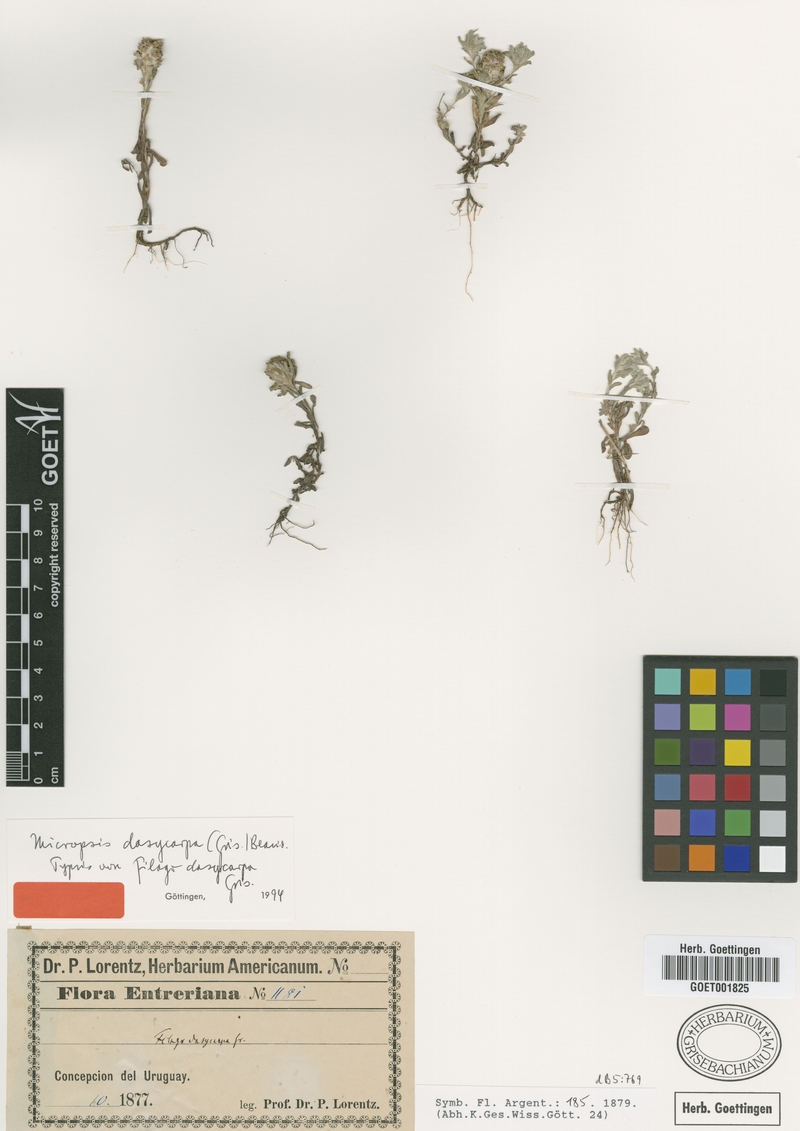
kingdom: Plantae
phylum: Tracheophyta
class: Magnoliopsida
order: Asterales
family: Asteraceae
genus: Micropsis
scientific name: Micropsis dasycarpa
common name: Bighead straitjackets
